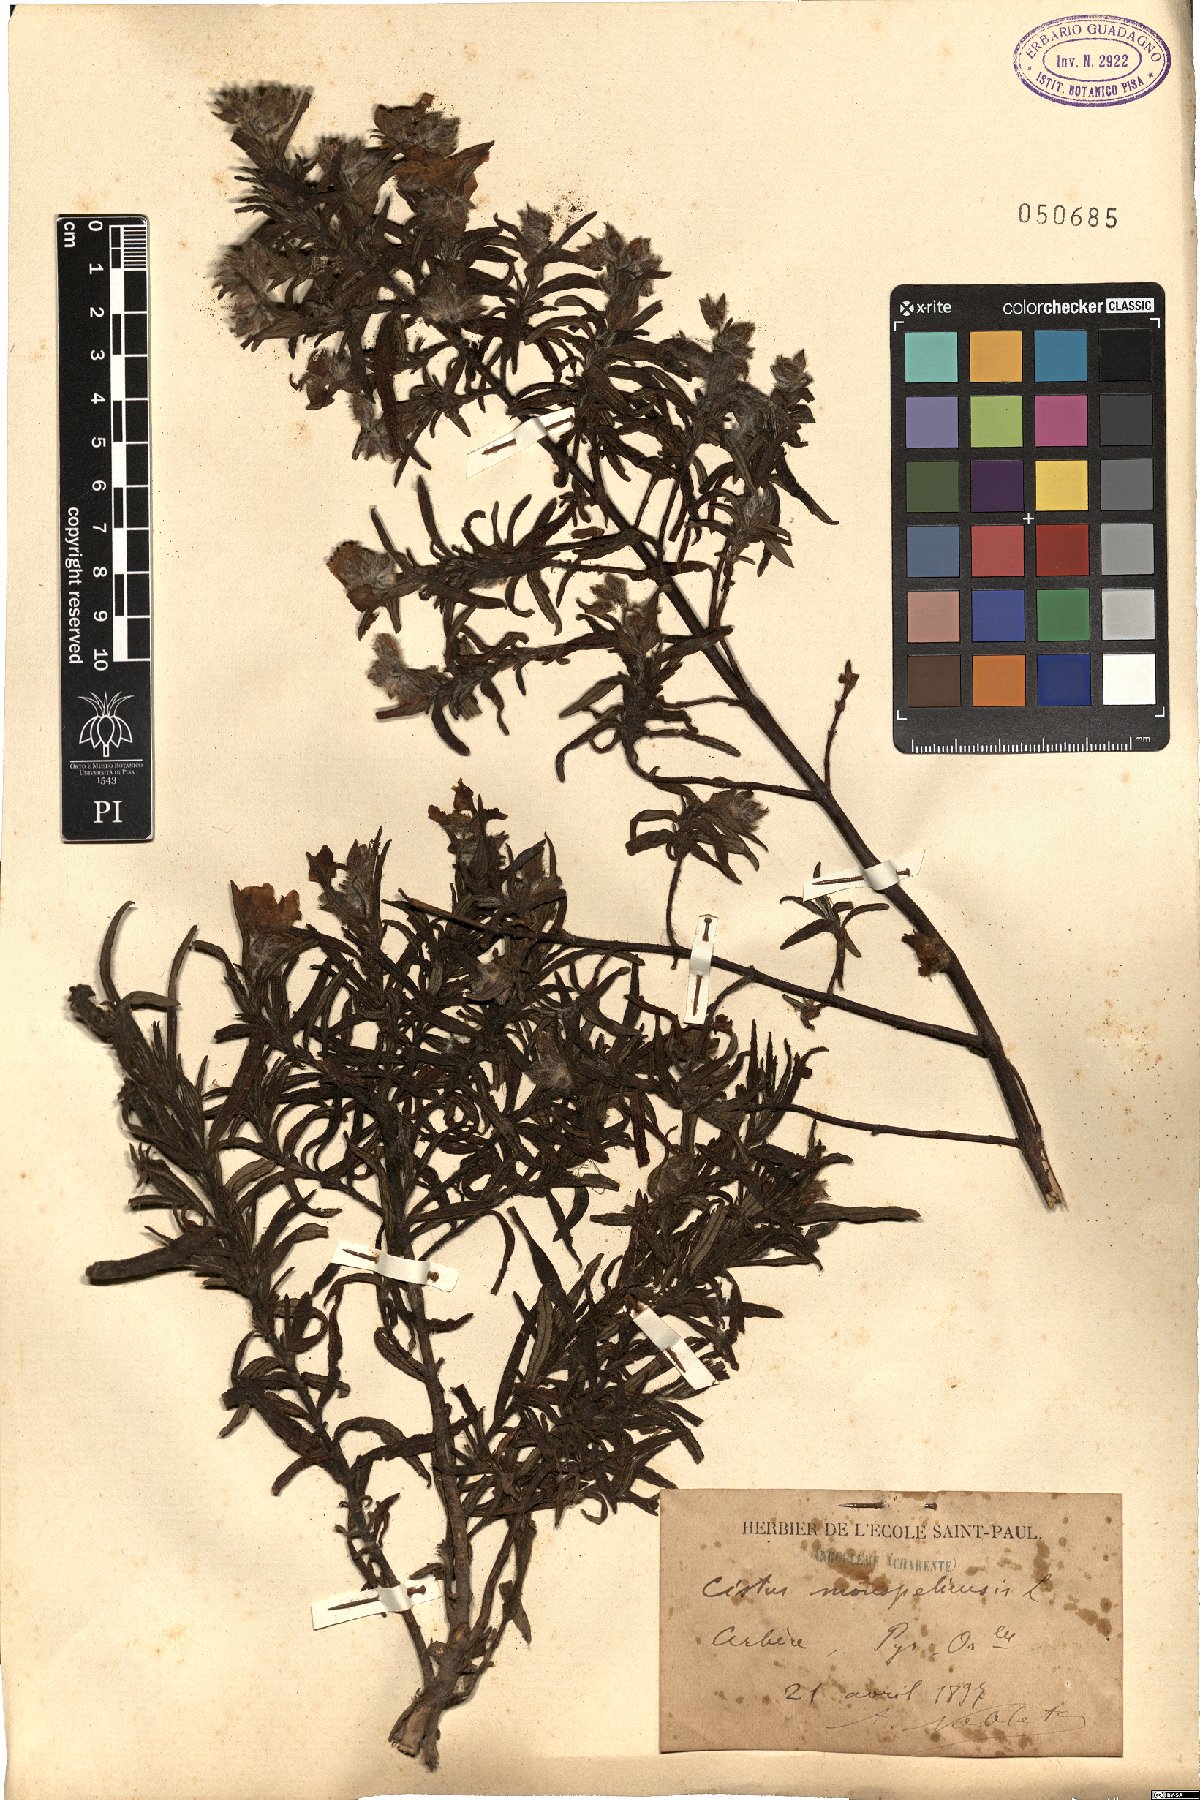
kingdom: Plantae
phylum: Tracheophyta
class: Magnoliopsida
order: Malvales
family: Cistaceae
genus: Cistus
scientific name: Cistus monspeliensis
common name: Montpelier cistus
